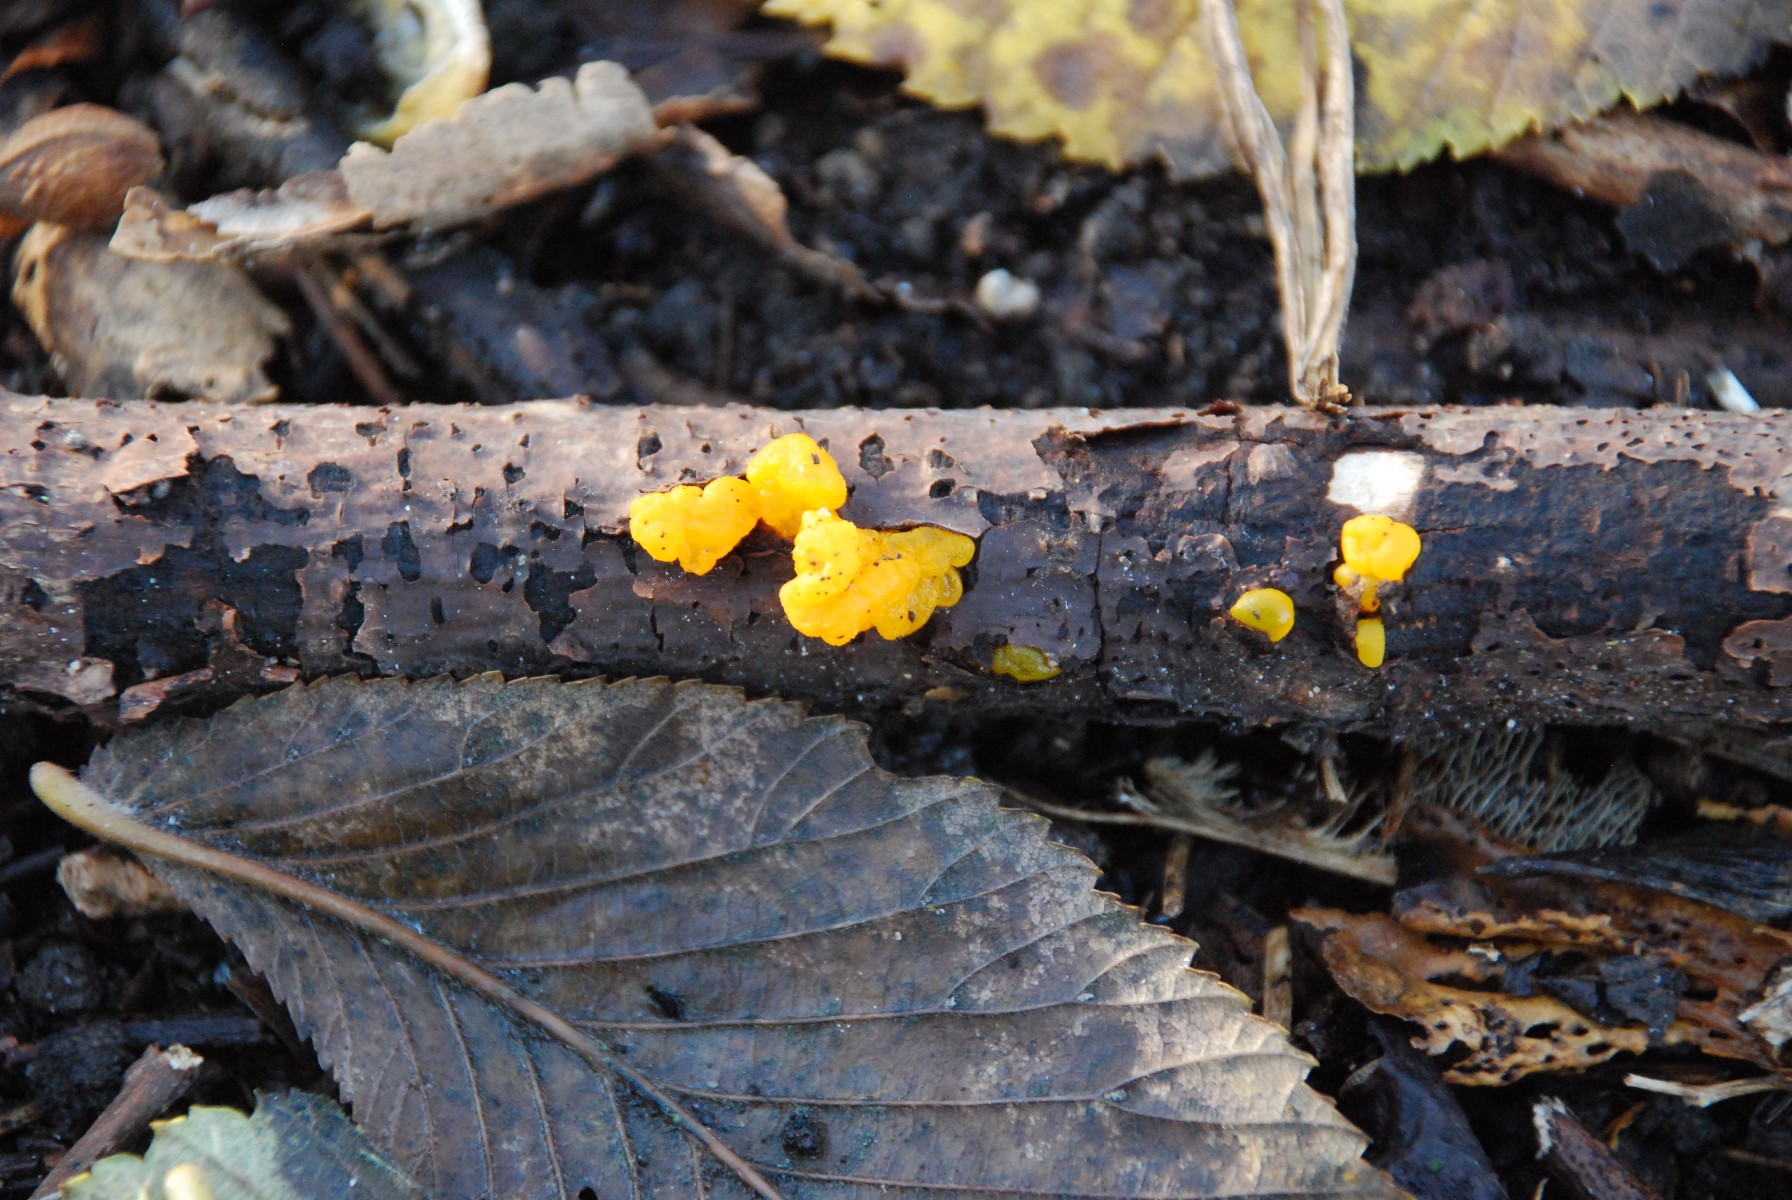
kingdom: Fungi
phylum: Basidiomycota
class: Tremellomycetes
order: Tremellales
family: Tremellaceae
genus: Tremella
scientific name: Tremella mesenterica
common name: gul bævresvamp
